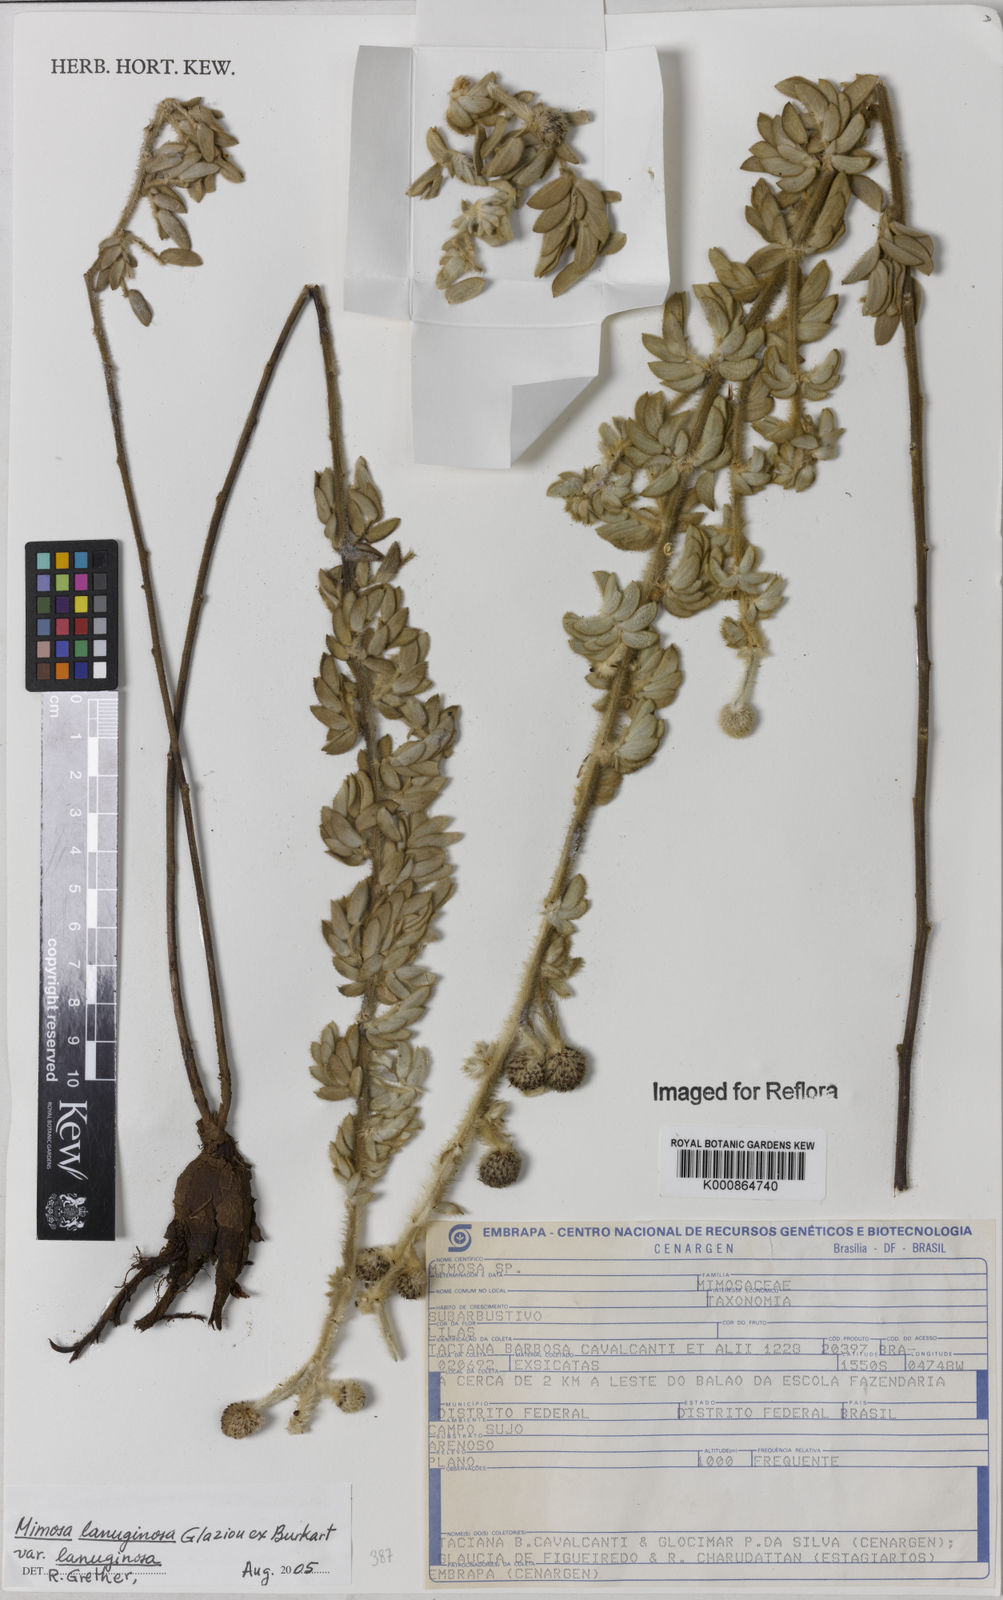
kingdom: Plantae
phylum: Tracheophyta
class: Magnoliopsida
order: Fabales
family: Fabaceae
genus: Mimosa
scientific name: Mimosa lanuginosa
